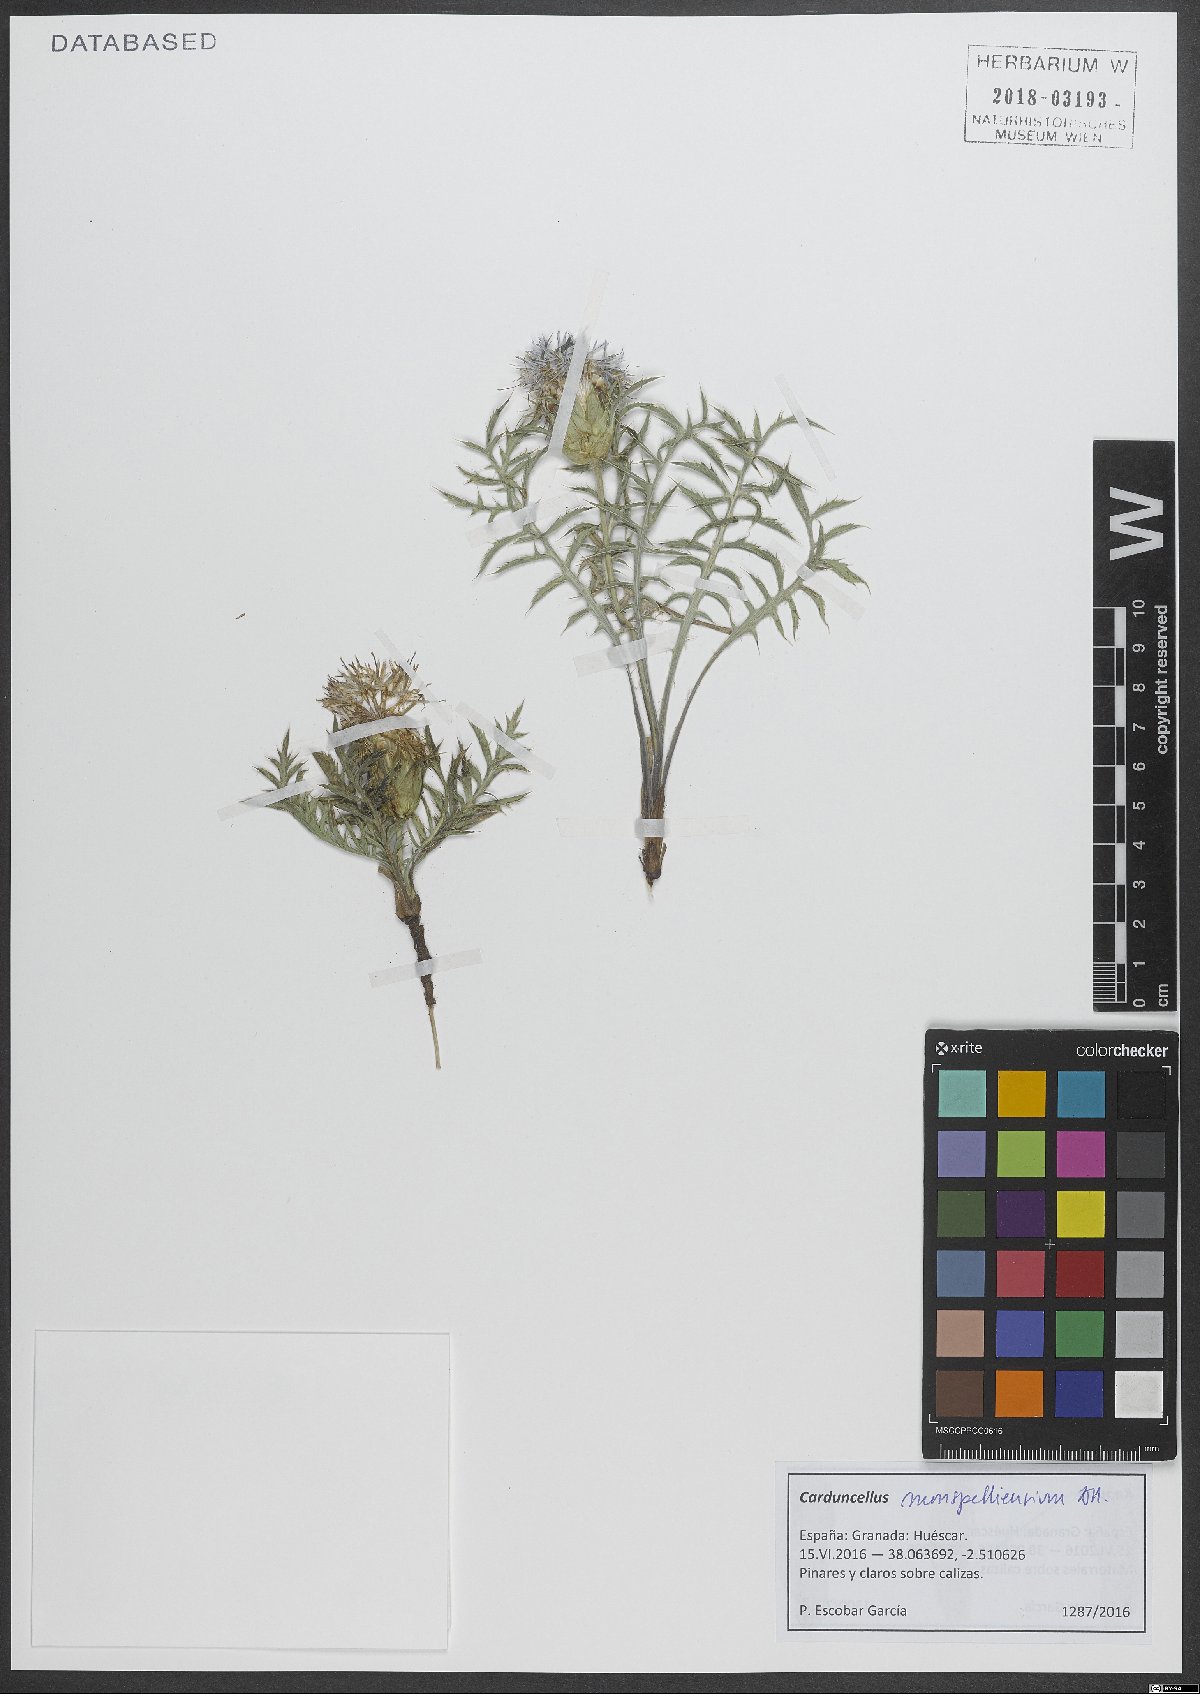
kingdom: Plantae
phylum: Tracheophyta
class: Magnoliopsida
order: Asterales
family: Asteraceae
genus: Carduncellus
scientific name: Carduncellus monspelliensium
